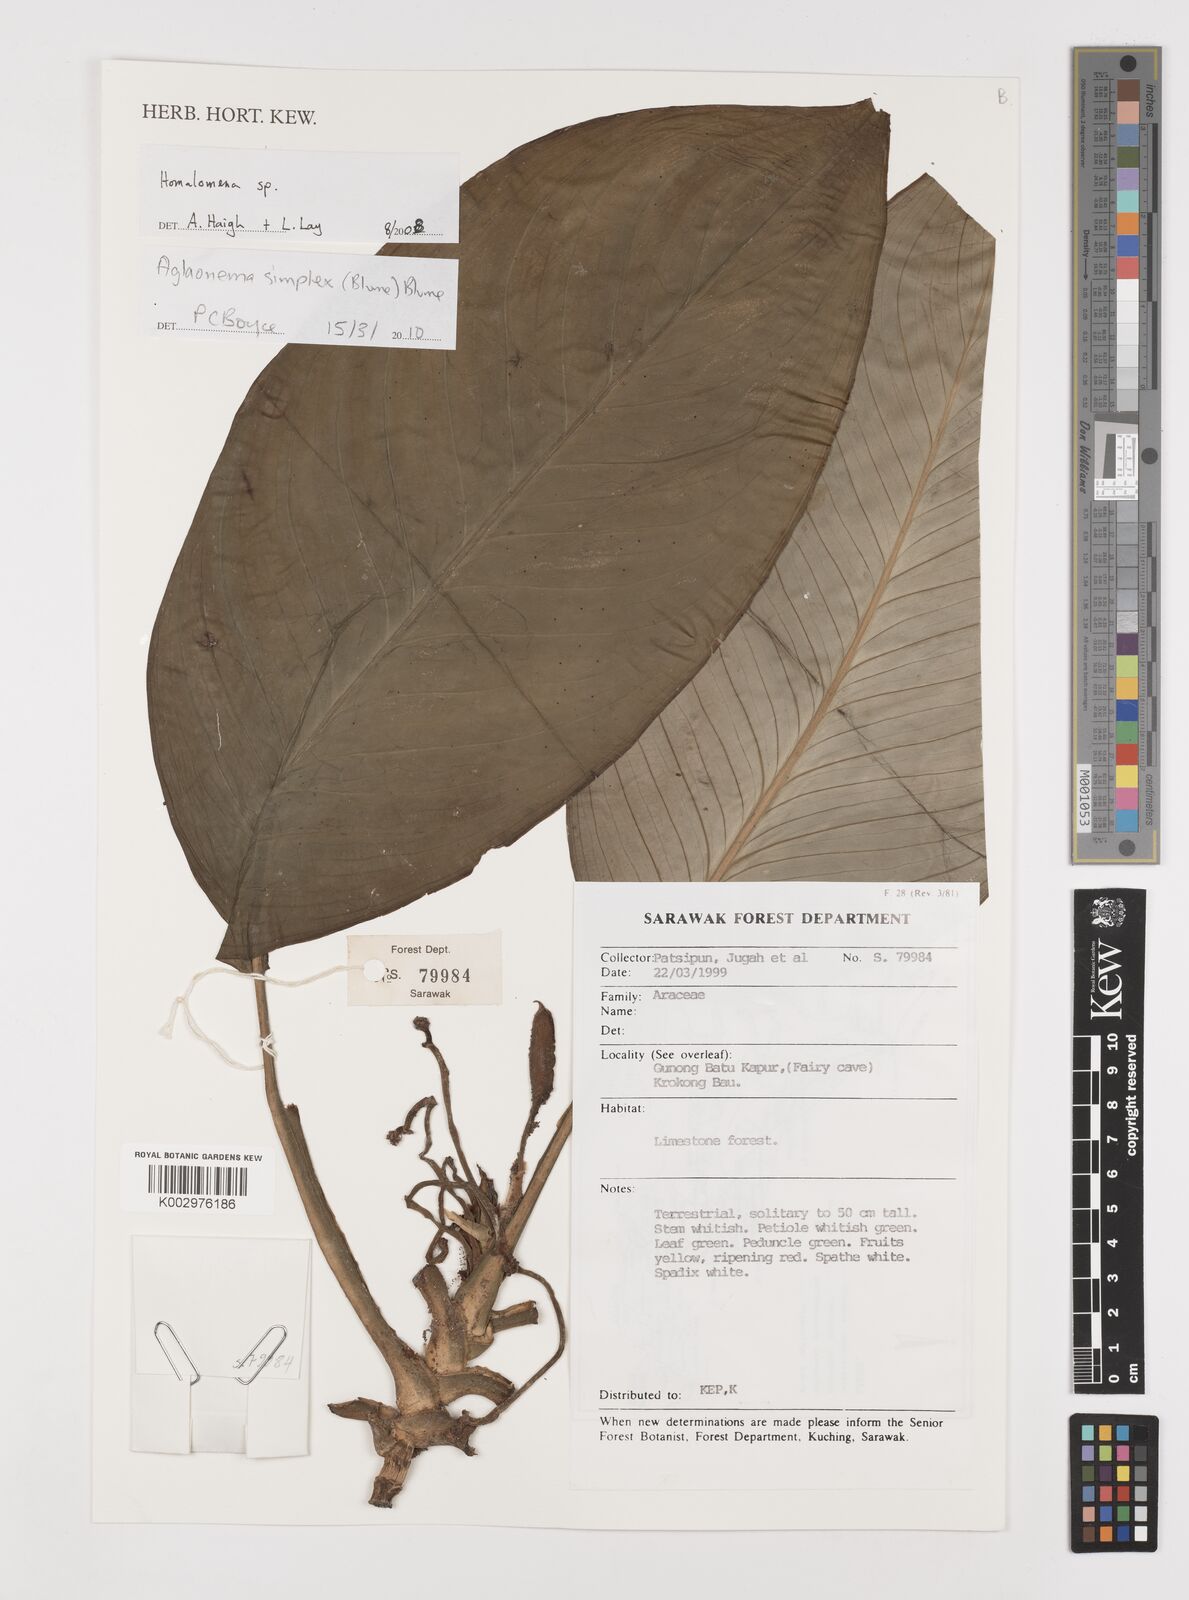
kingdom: Plantae
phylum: Tracheophyta
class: Liliopsida
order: Alismatales
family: Araceae
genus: Aglaonema
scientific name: Aglaonema simplex
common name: Malayan-sword
